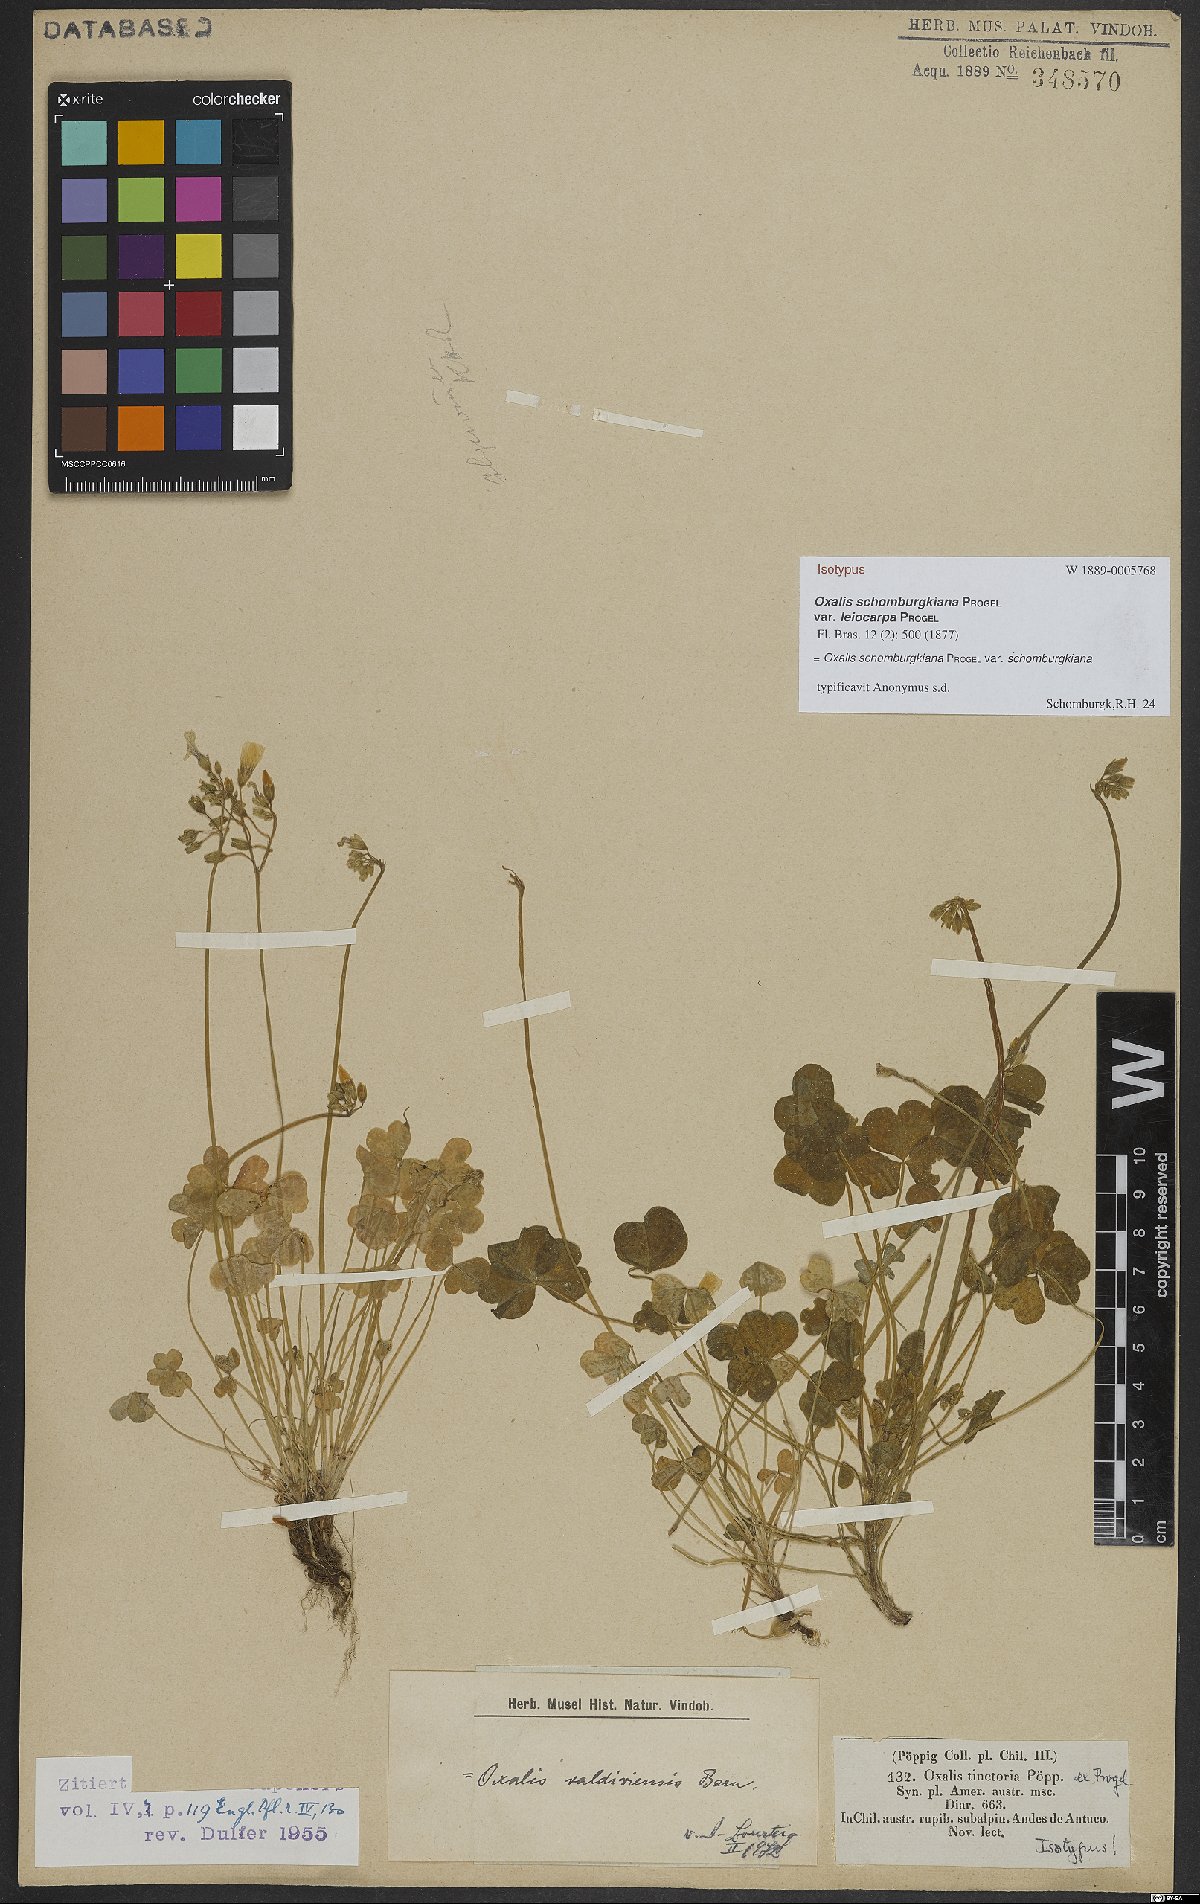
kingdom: Plantae
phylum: Tracheophyta
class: Magnoliopsida
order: Oxalidales
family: Oxalidaceae
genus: Oxalis
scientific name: Oxalis valdiviensis
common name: Chilean yellow-sorrel
